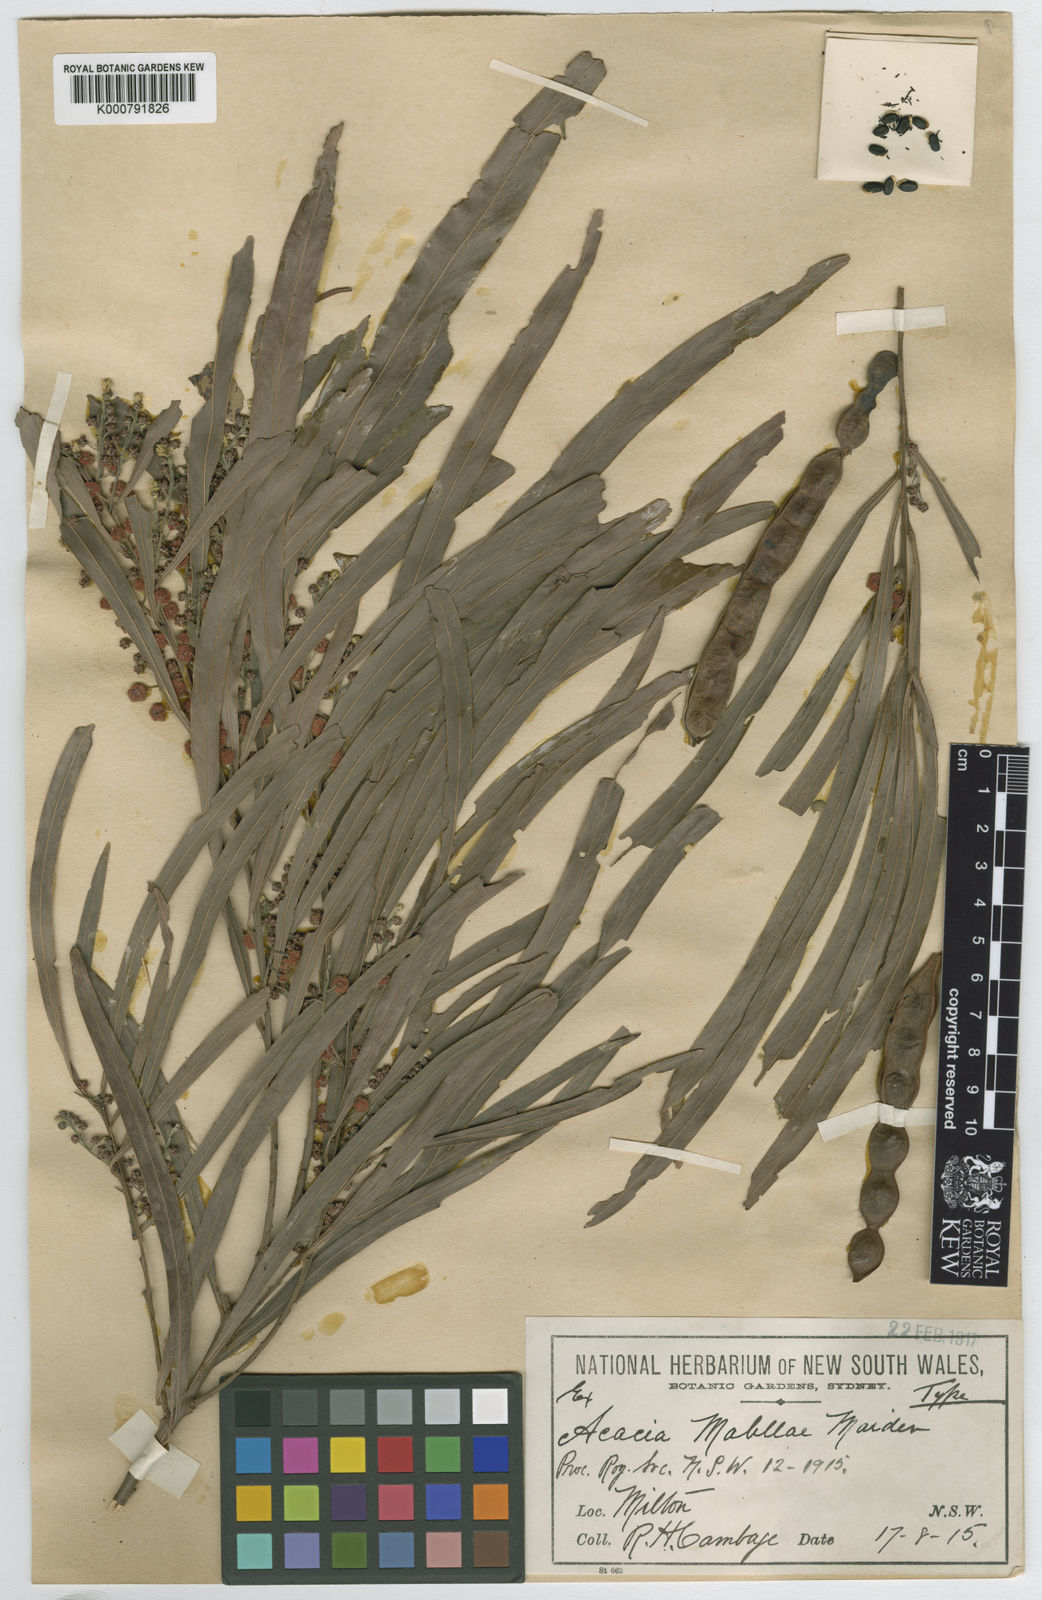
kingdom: Plantae
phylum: Tracheophyta
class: Magnoliopsida
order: Fabales
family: Fabaceae
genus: Acacia
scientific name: Acacia mabellae
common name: Black wattle
